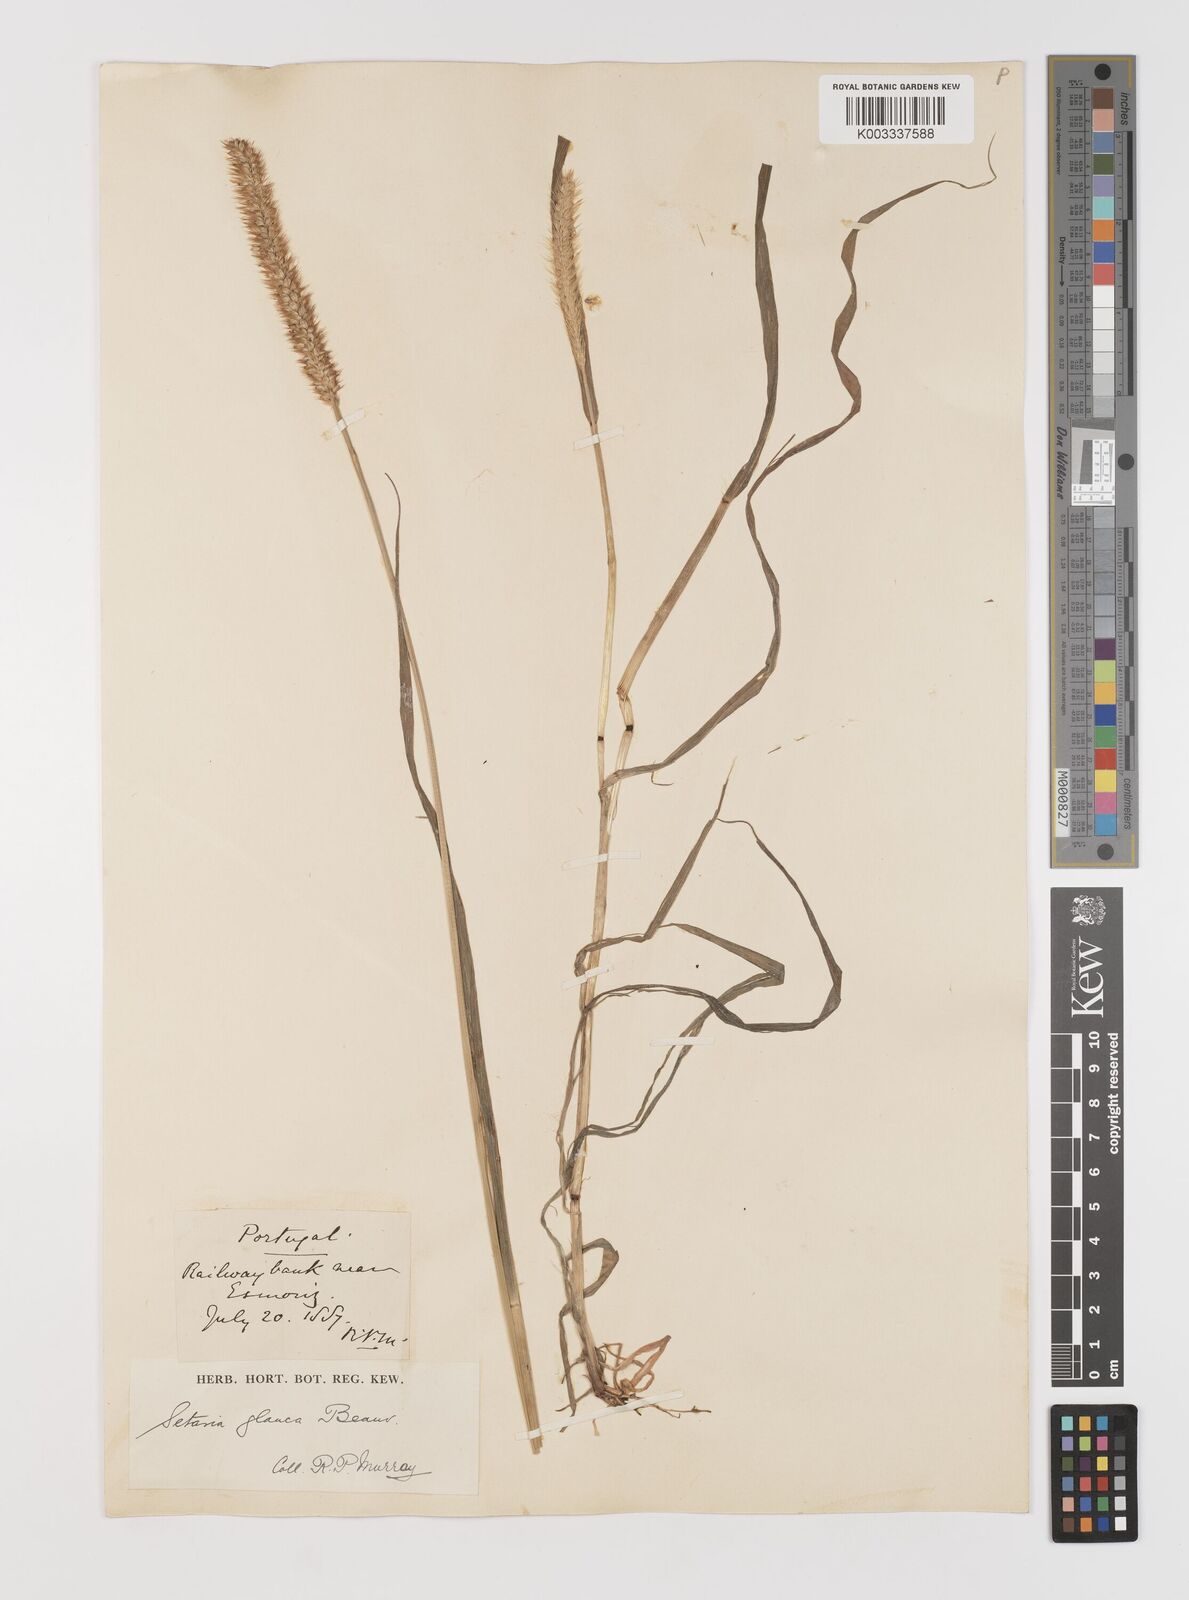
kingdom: Plantae
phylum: Tracheophyta
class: Liliopsida
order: Poales
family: Poaceae
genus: Setaria
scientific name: Setaria pumila
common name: Yellow bristle-grass
